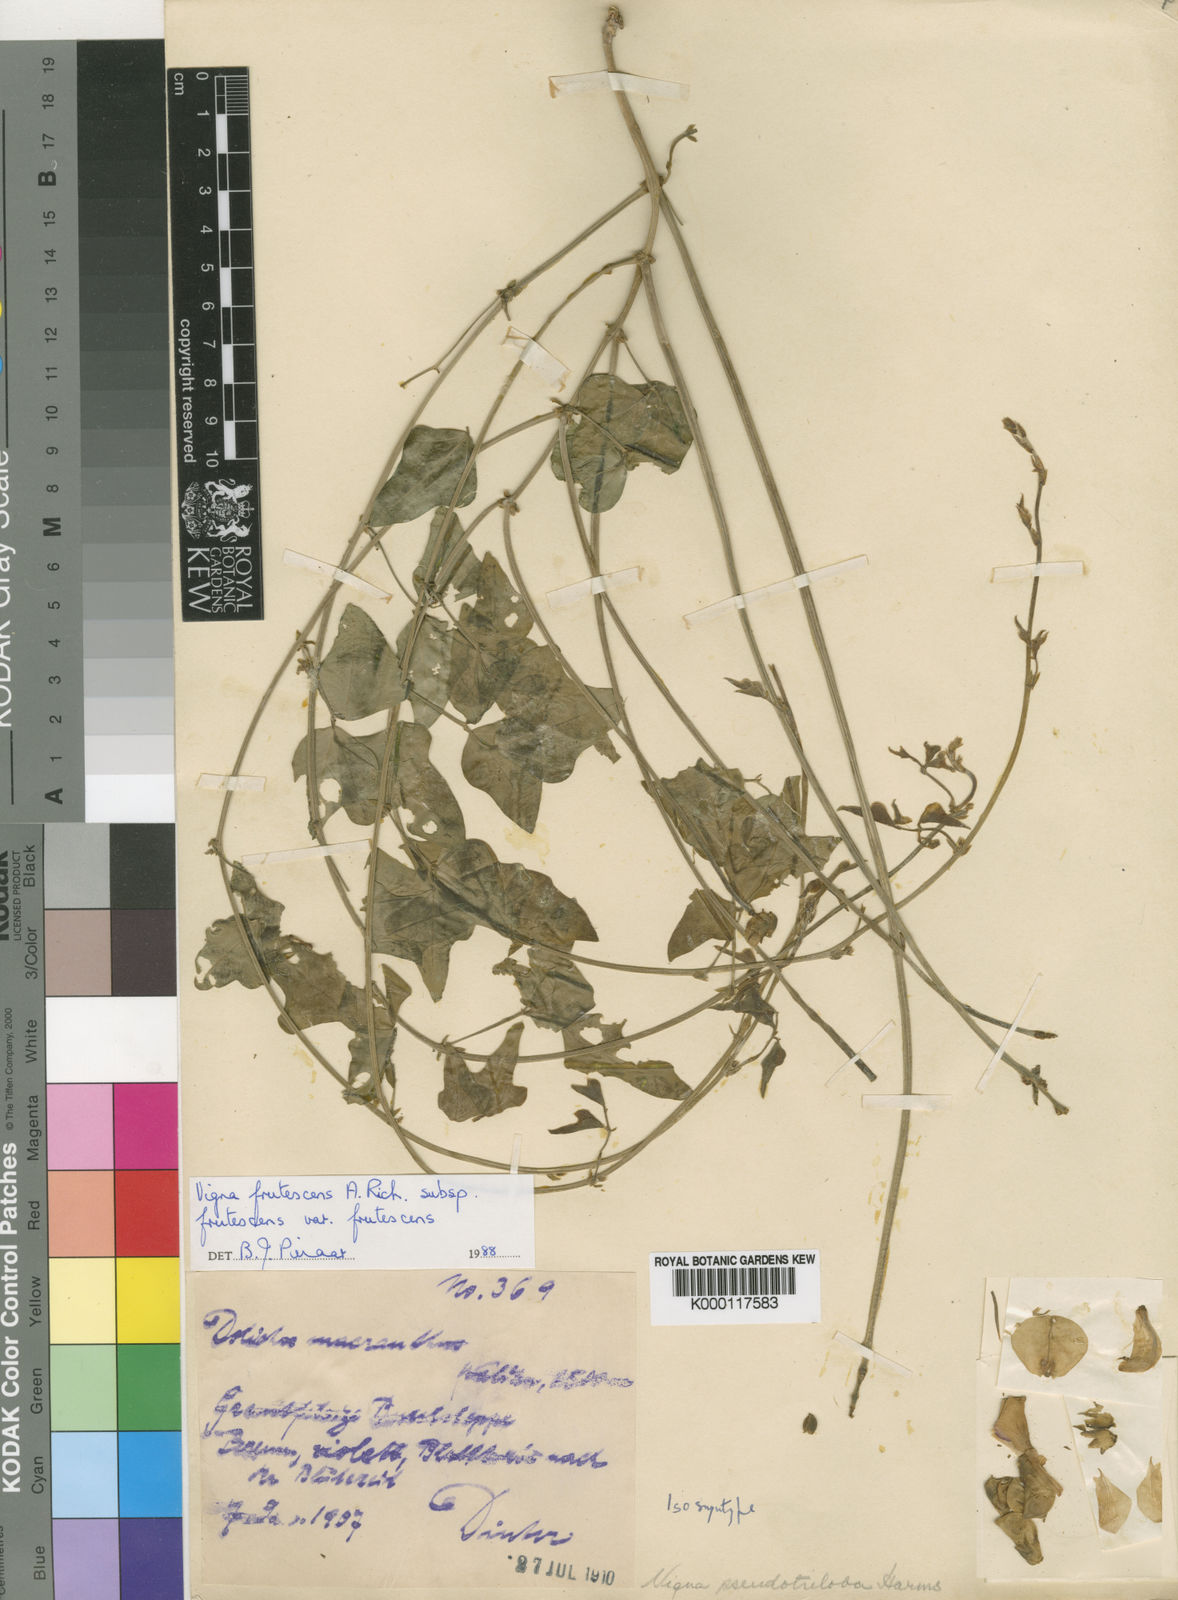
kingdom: Plantae
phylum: Tracheophyta
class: Magnoliopsida
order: Fabales
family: Fabaceae
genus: Vigna
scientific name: Vigna frutescens
